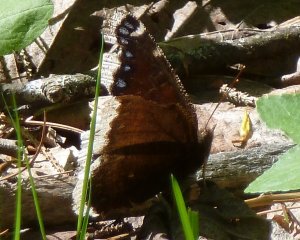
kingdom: Animalia
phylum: Arthropoda
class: Insecta
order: Lepidoptera
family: Nymphalidae
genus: Nymphalis
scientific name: Nymphalis antiopa
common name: Mourning Cloak
